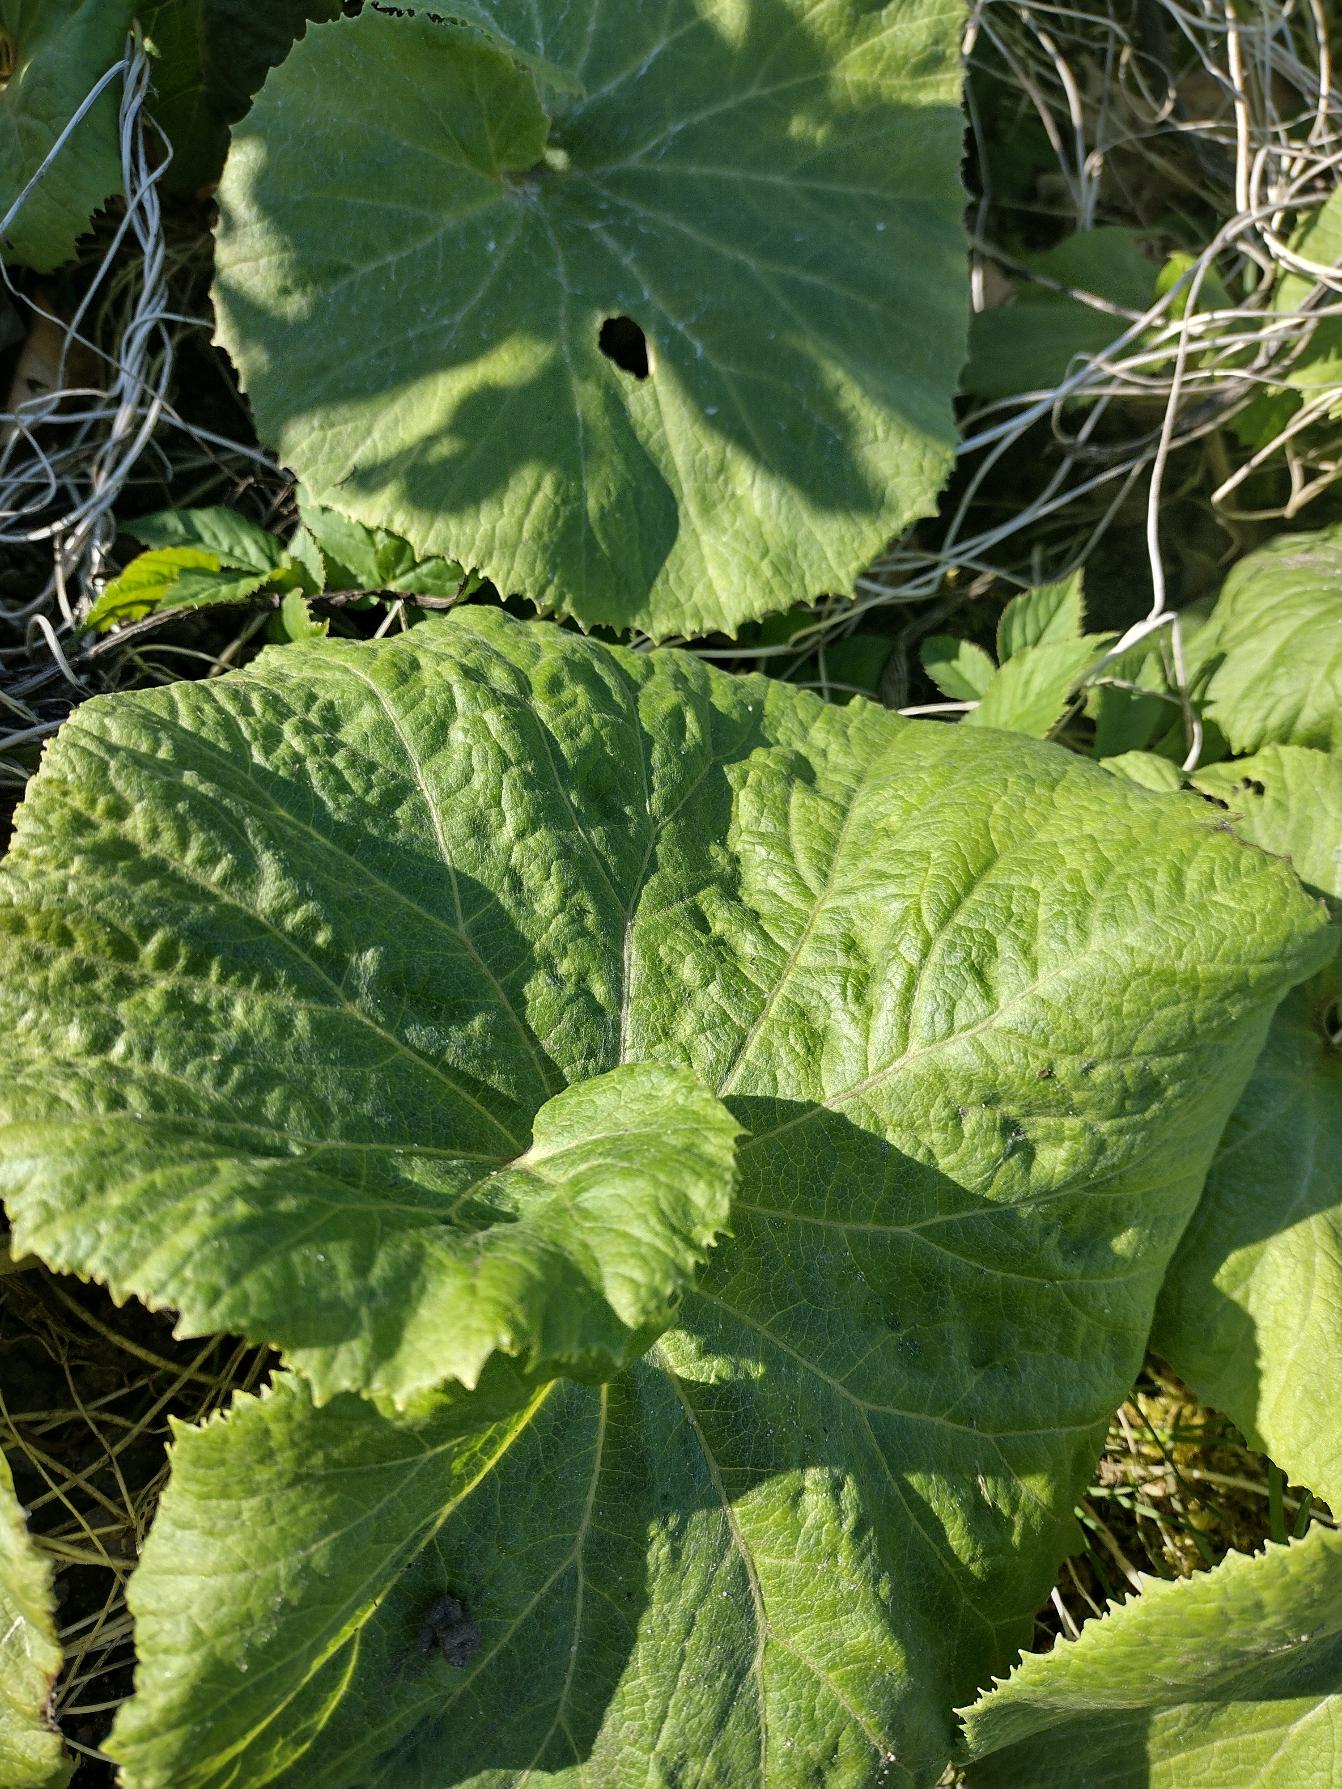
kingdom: Plantae
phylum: Tracheophyta
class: Magnoliopsida
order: Asterales
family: Asteraceae
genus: Petasites
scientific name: Petasites japonicus
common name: Japansk hestehov
